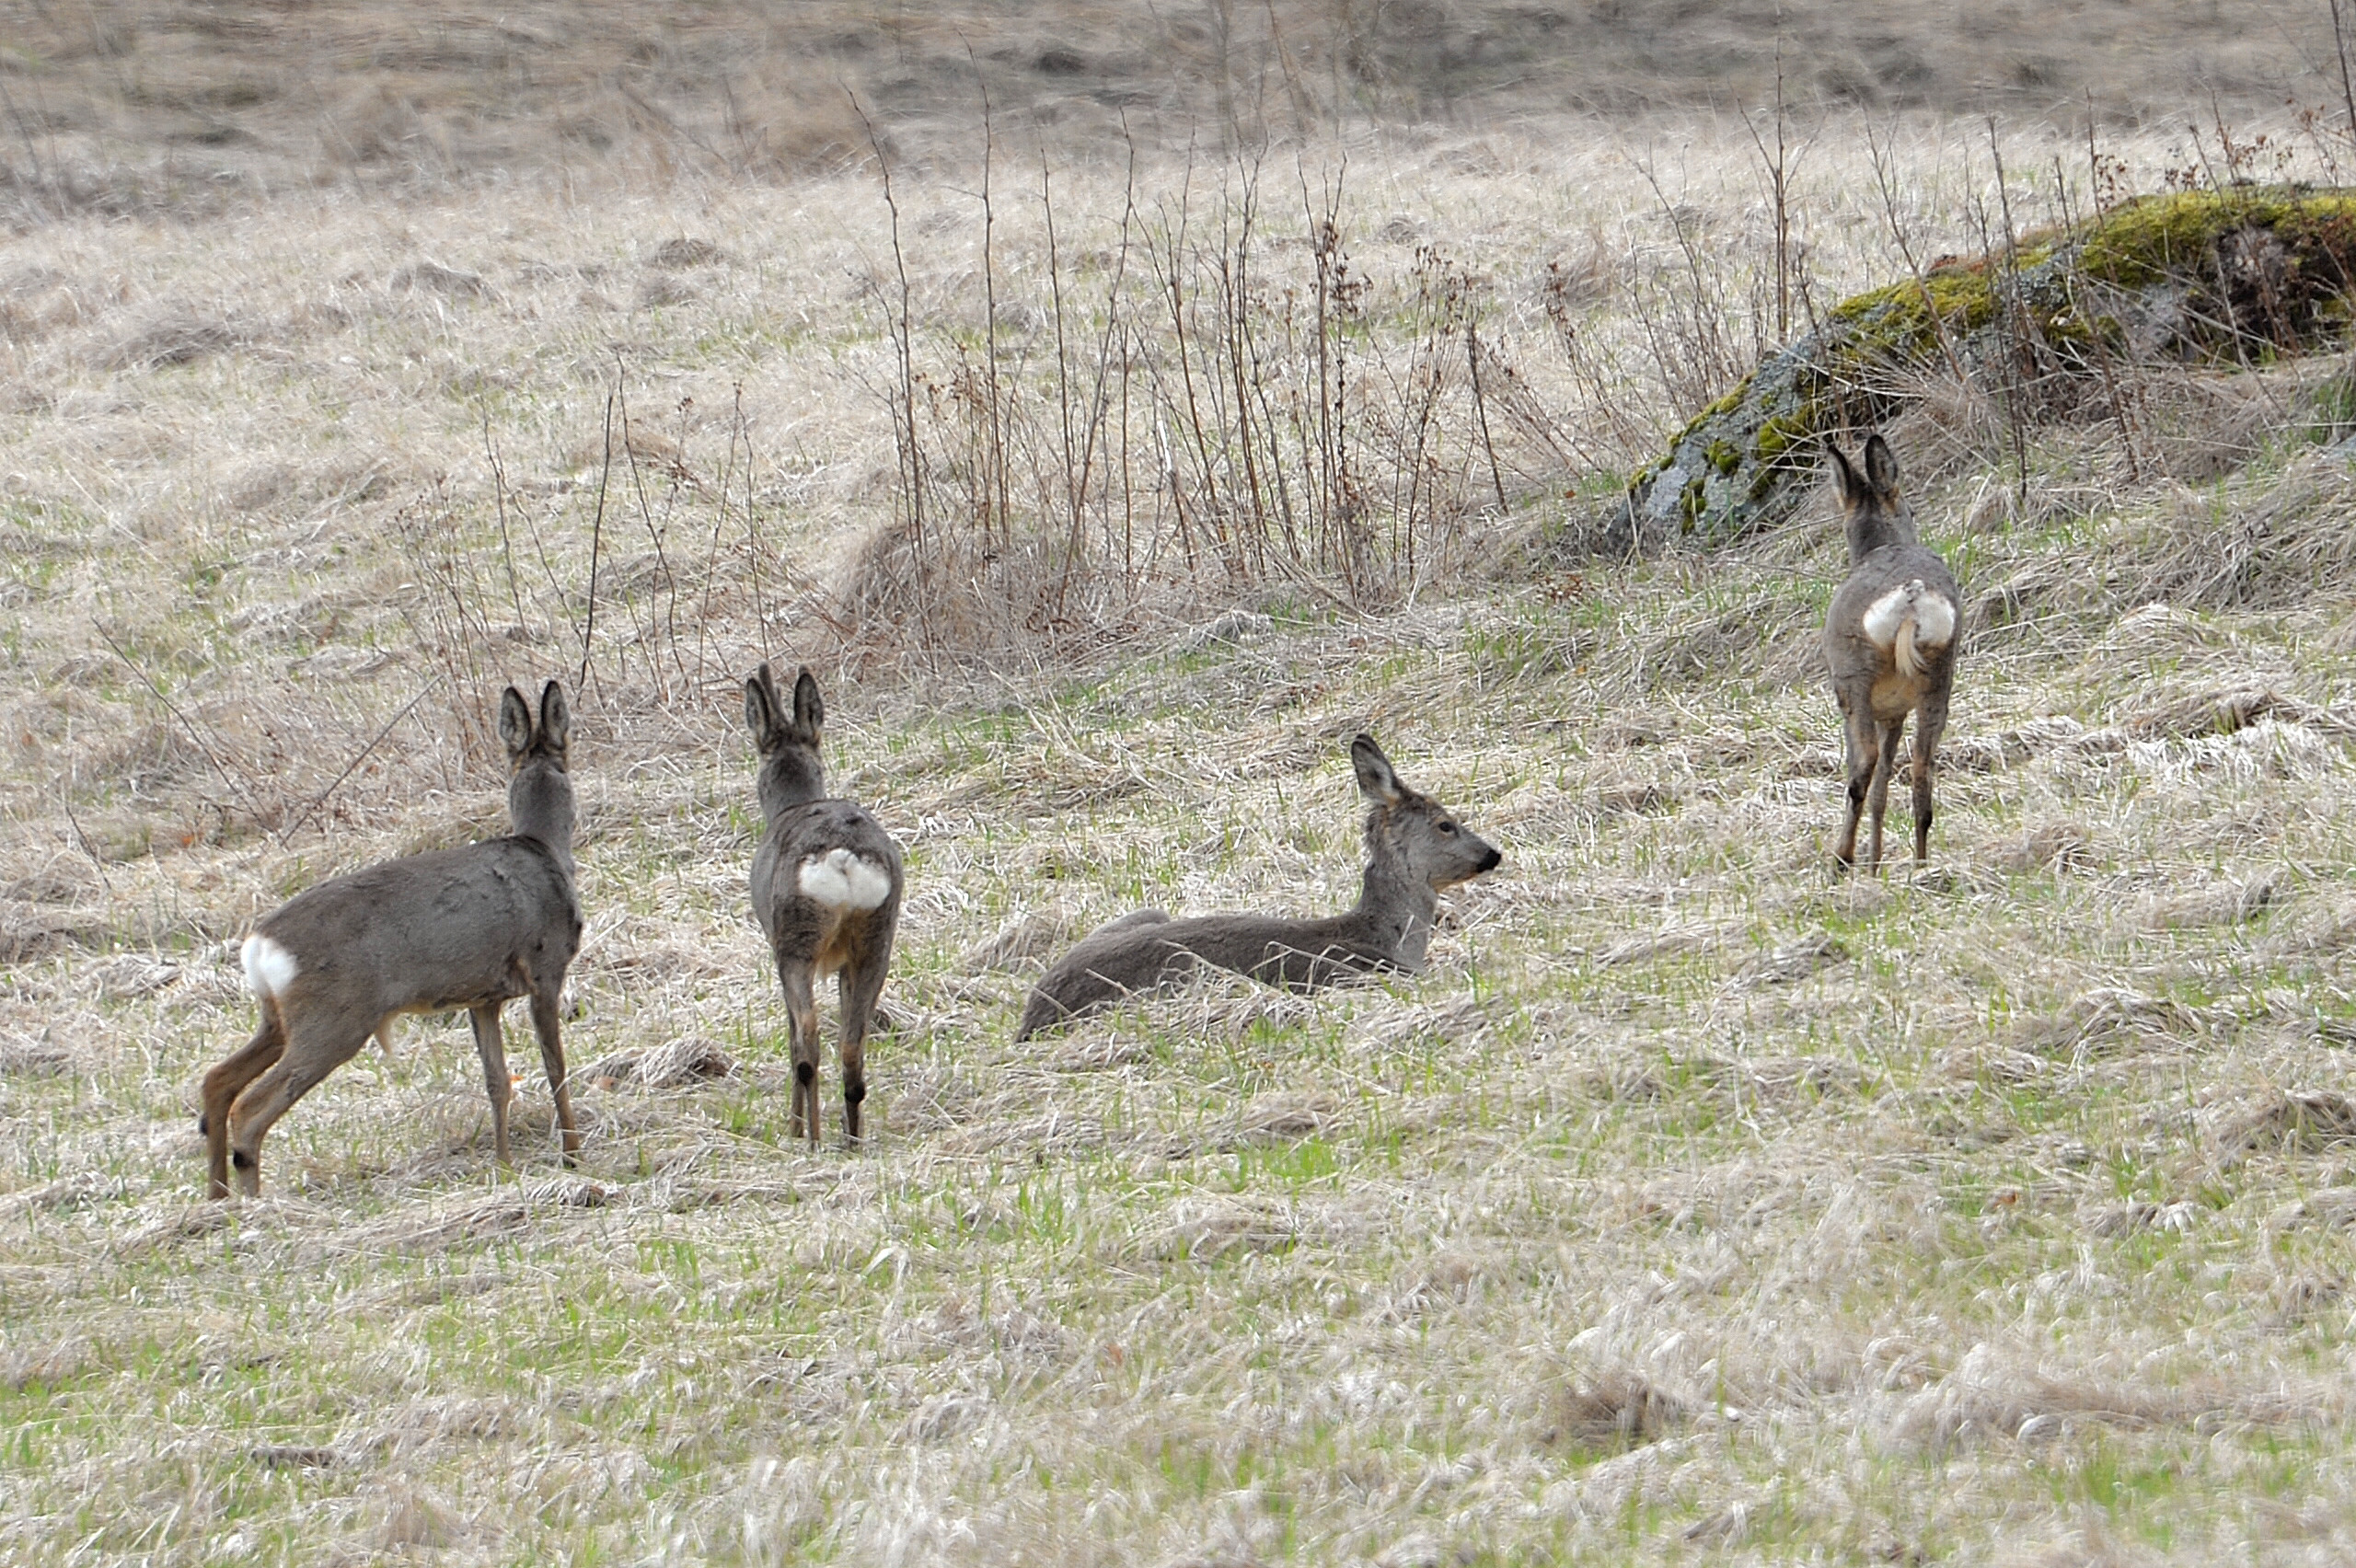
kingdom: Animalia
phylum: Chordata
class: Mammalia
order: Artiodactyla
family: Cervidae
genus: Capreolus
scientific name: Capreolus capreolus
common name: Western roe deer
